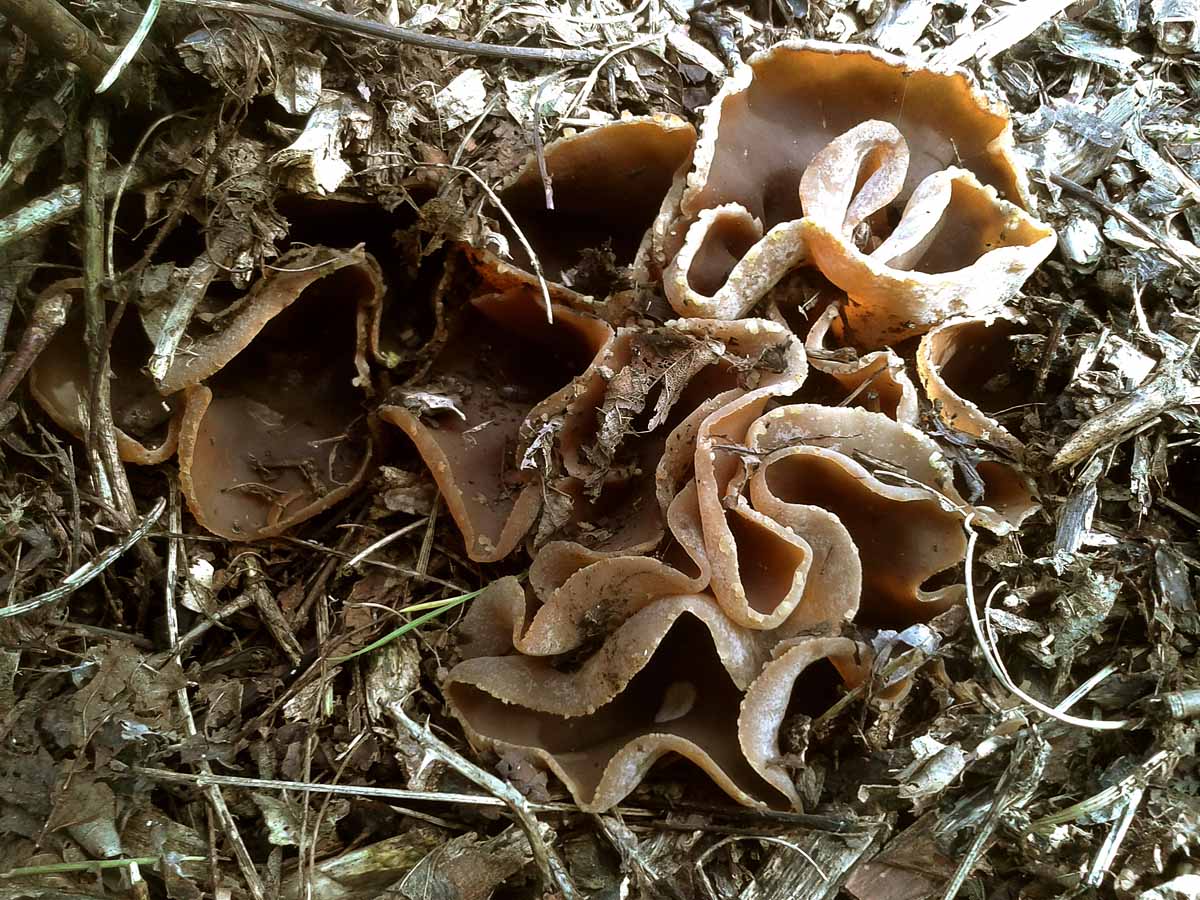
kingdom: Fungi
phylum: Ascomycota
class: Pezizomycetes
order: Pezizales
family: Pezizaceae
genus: Peziza
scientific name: Peziza varia
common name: Ved-bægersvamp
